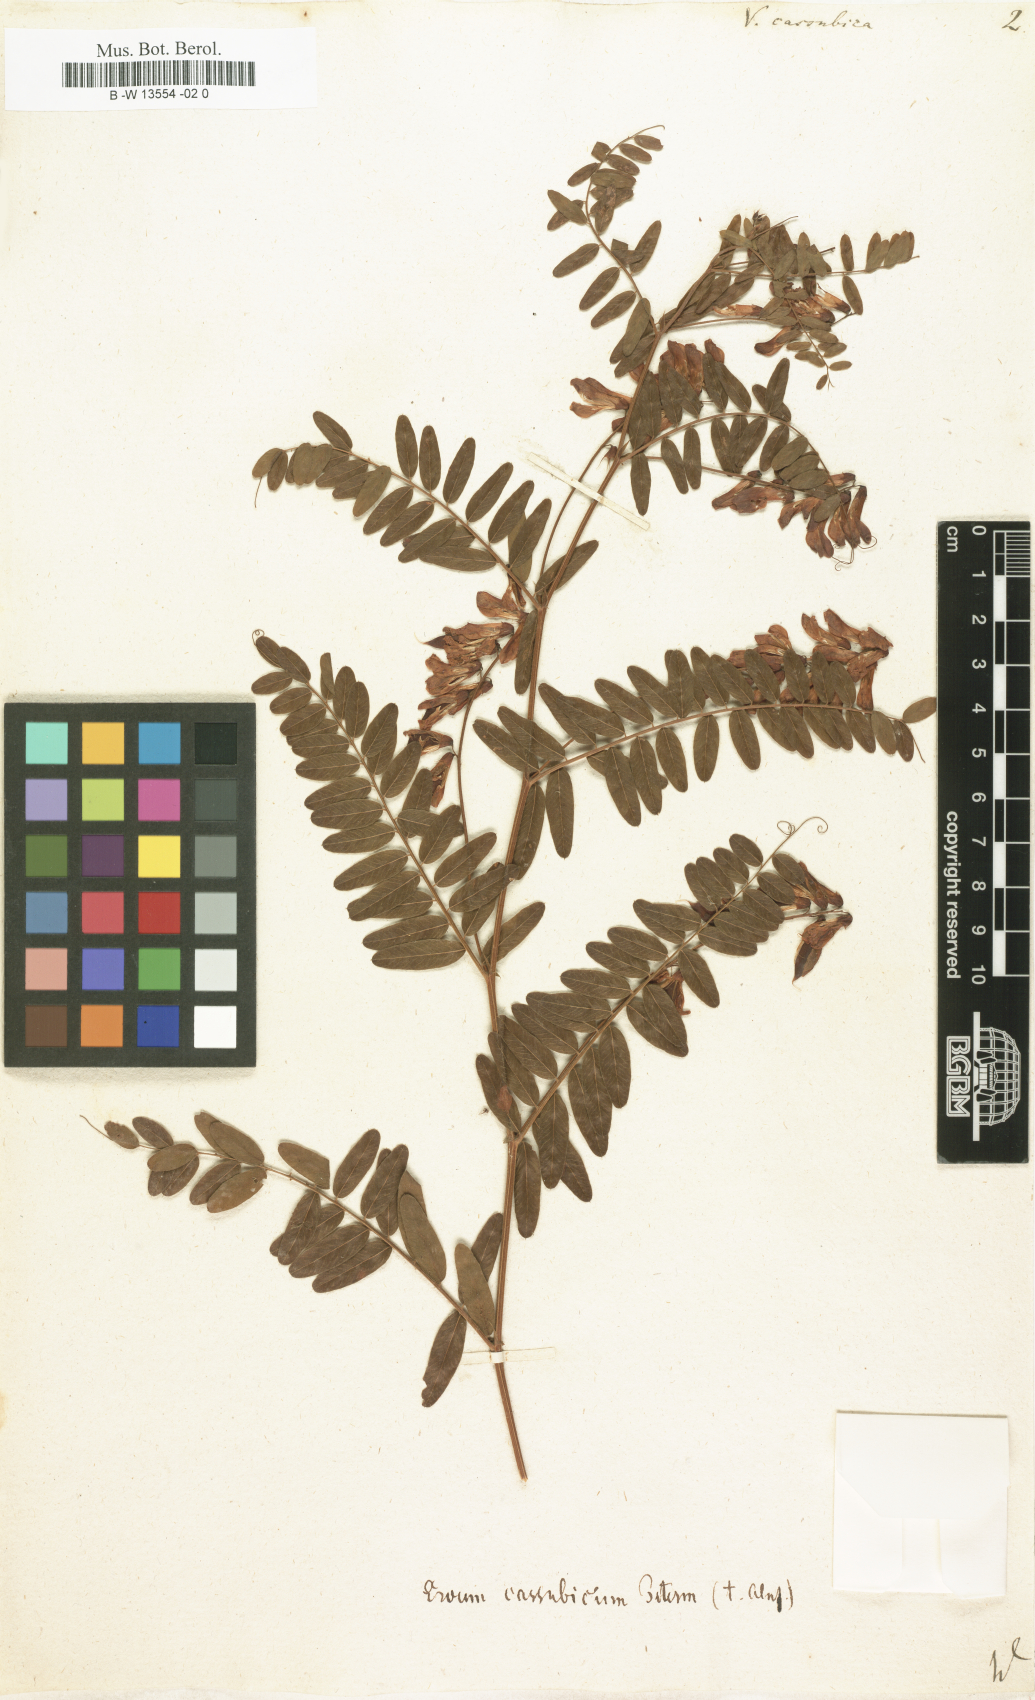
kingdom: Plantae
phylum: Tracheophyta
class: Magnoliopsida
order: Fabales
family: Fabaceae
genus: Vicia
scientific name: Vicia cassubica
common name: Danzig vetch
